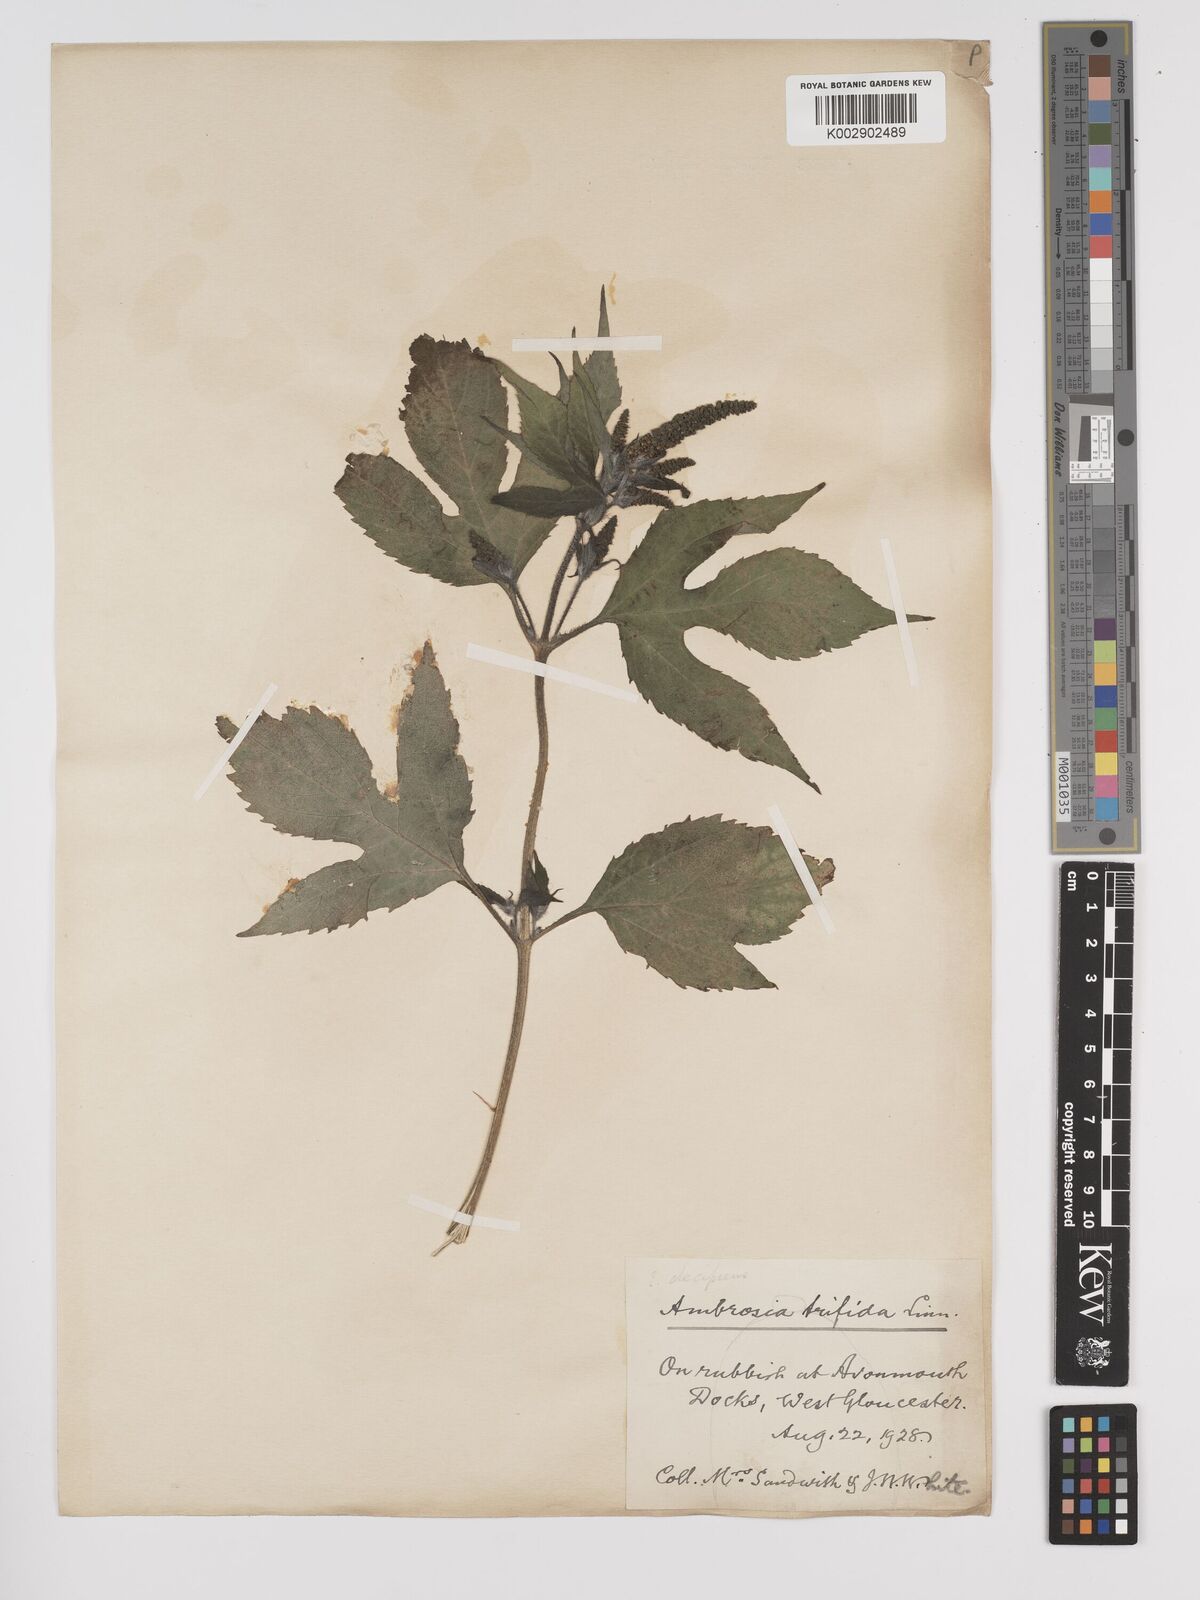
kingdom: Plantae
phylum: Tracheophyta
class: Magnoliopsida
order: Asterales
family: Asteraceae
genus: Ambrosia
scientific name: Ambrosia trifida
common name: Giant ragweed
